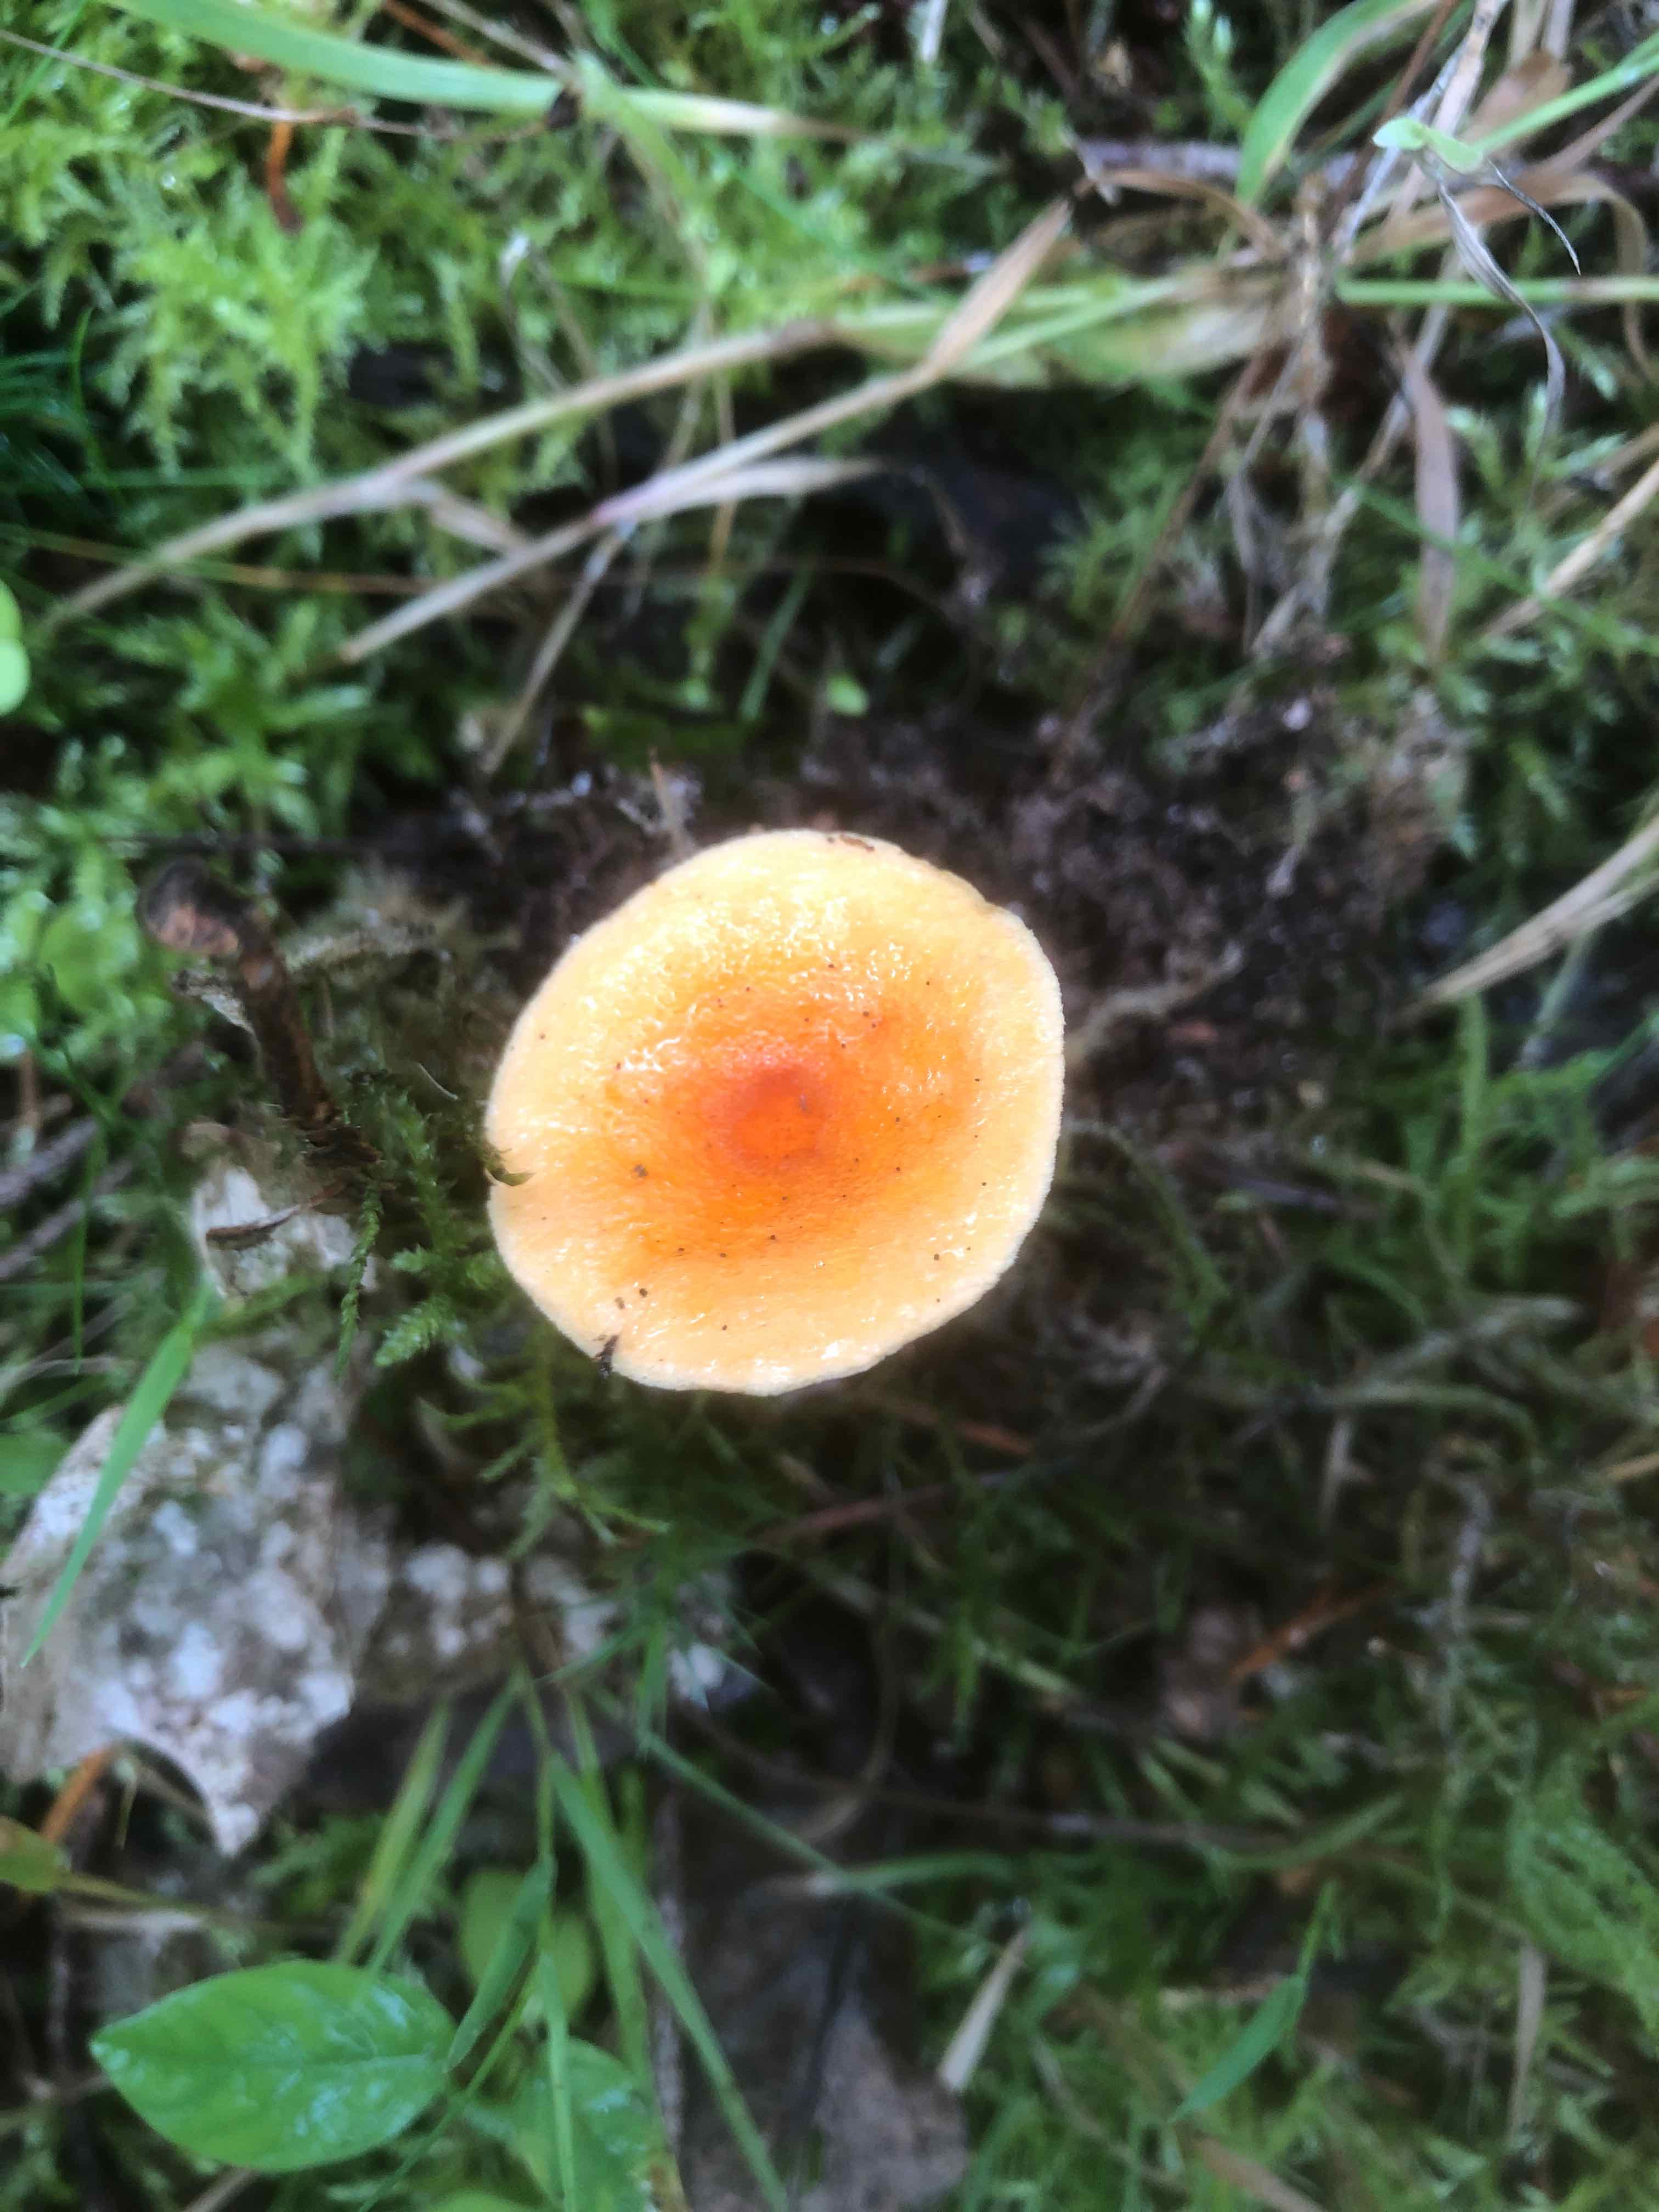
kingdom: Fungi
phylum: Basidiomycota
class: Agaricomycetes
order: Boletales
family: Hygrophoropsidaceae
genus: Hygrophoropsis
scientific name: Hygrophoropsis aurantiaca
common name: almindelig orangekantarel
